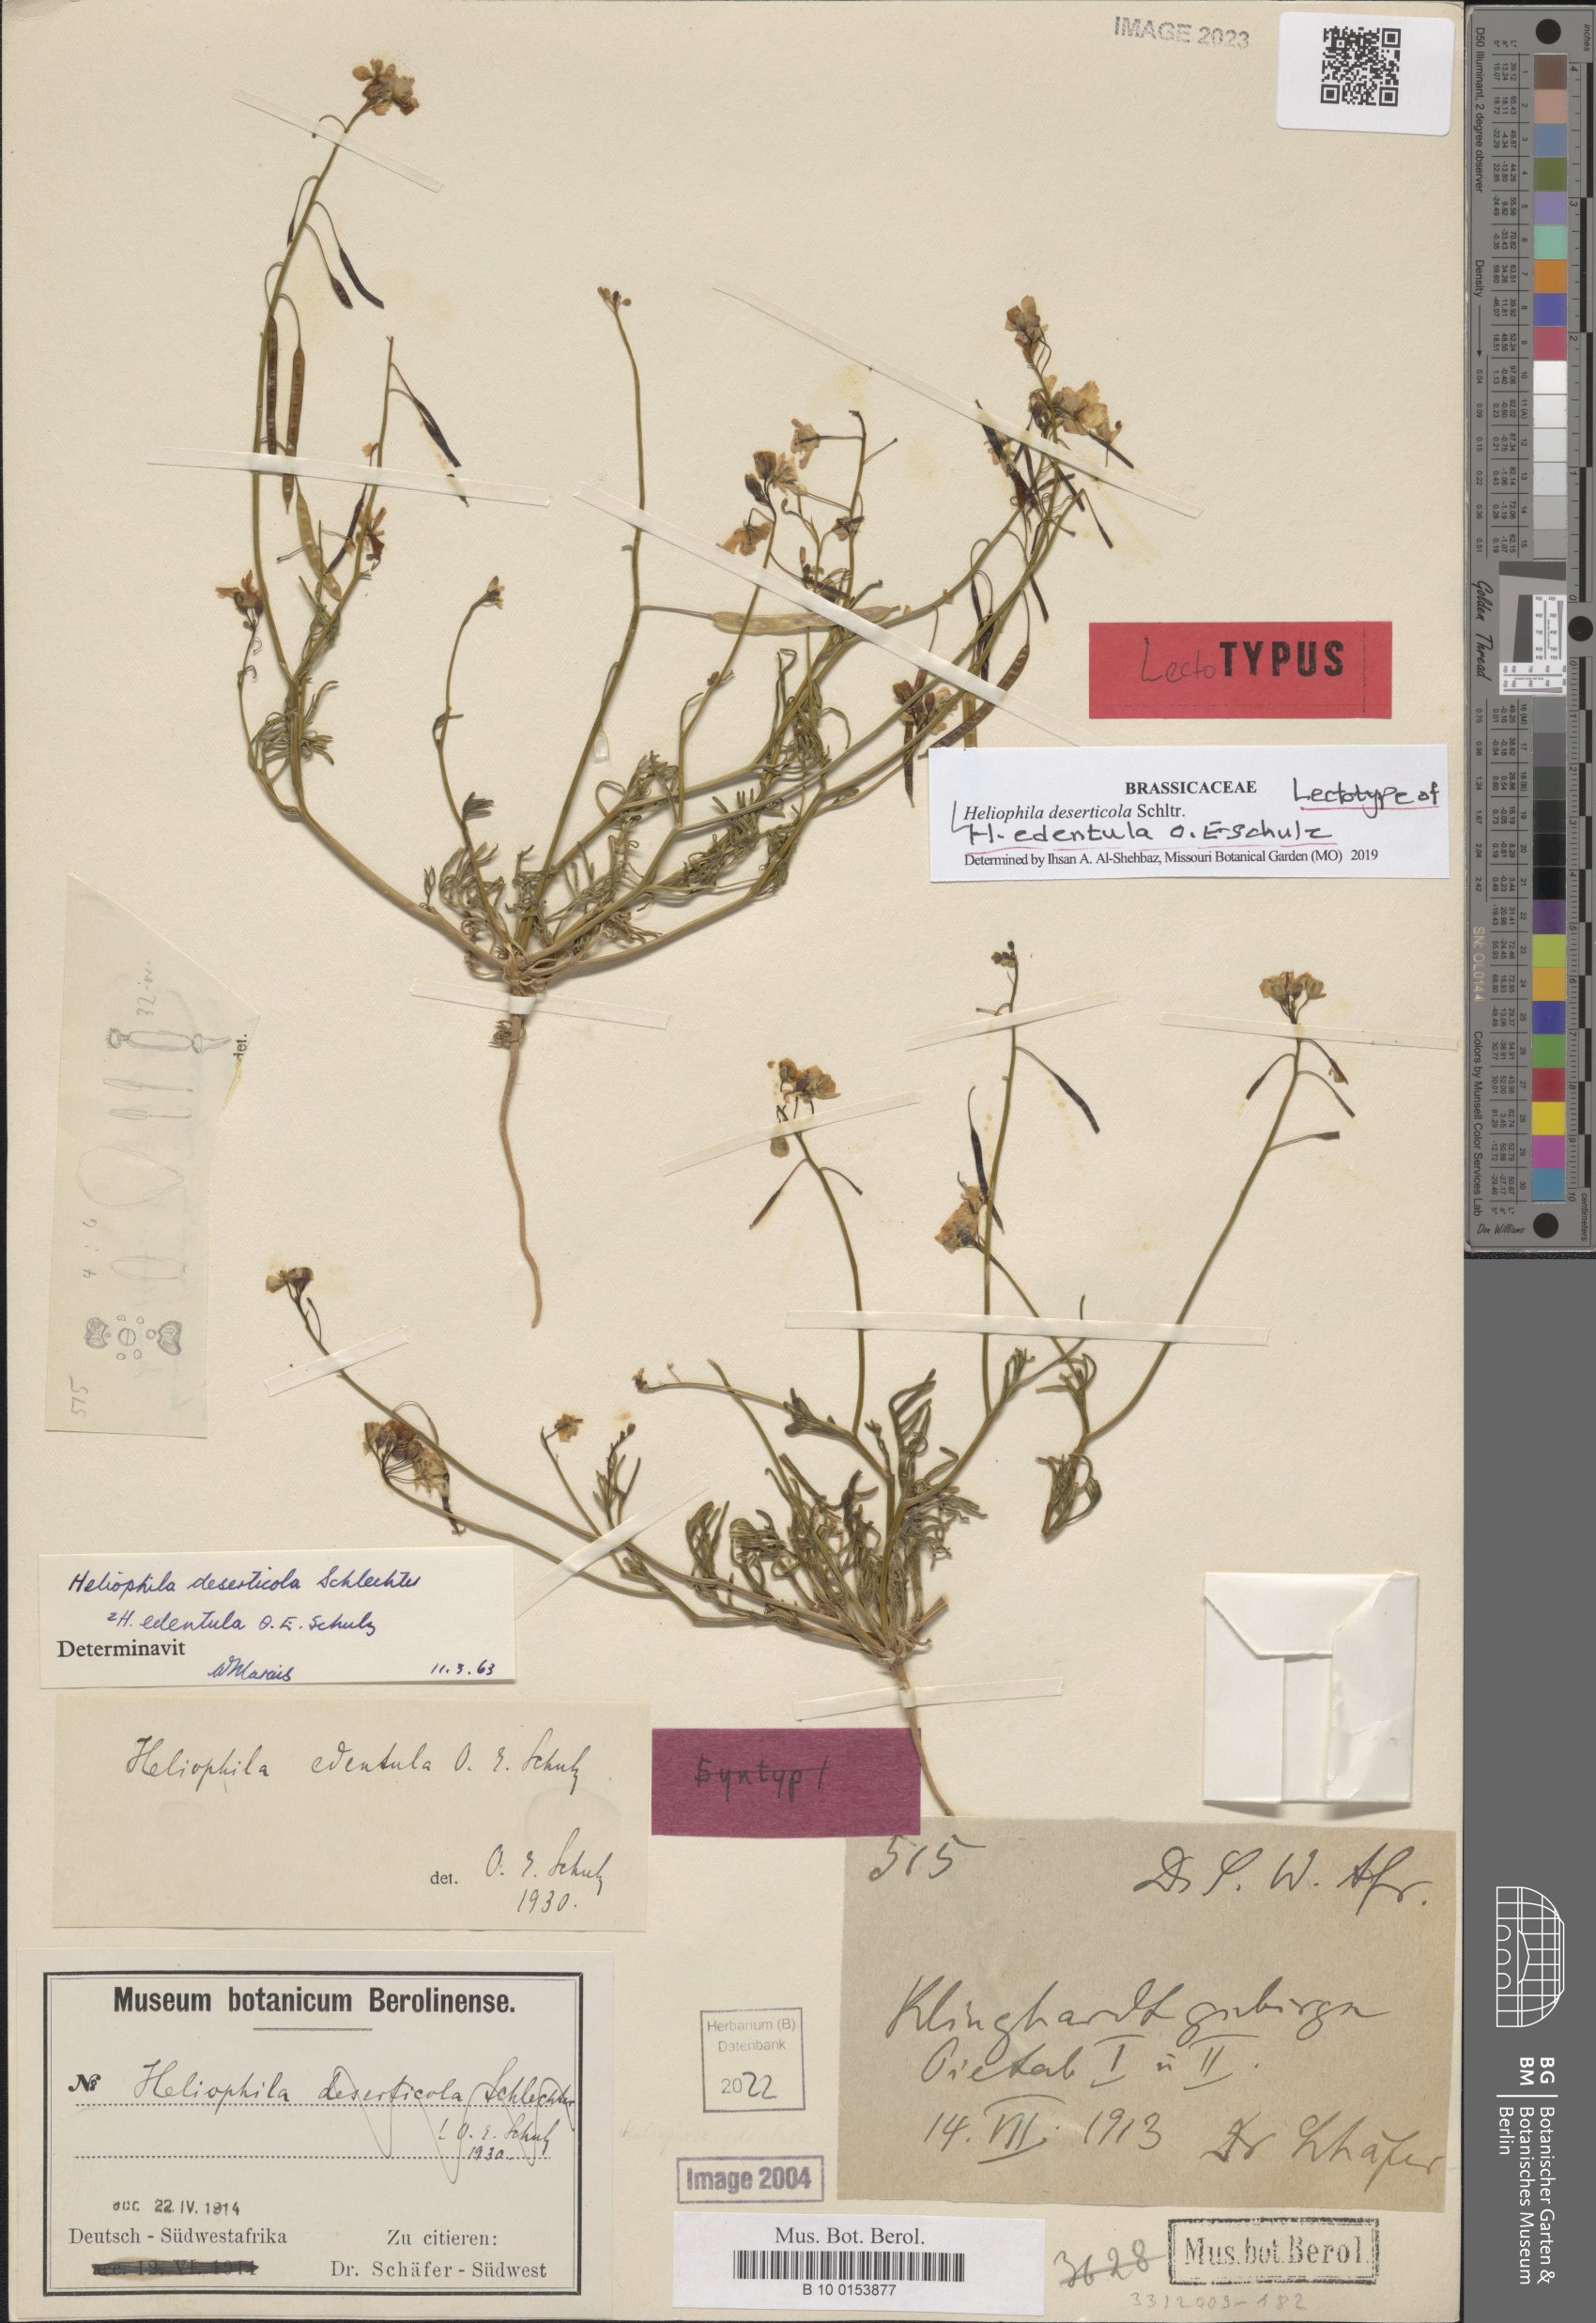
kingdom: Plantae
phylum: Tracheophyta
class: Magnoliopsida
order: Brassicales
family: Brassicaceae
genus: Heliophila
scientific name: Heliophila deserticola
